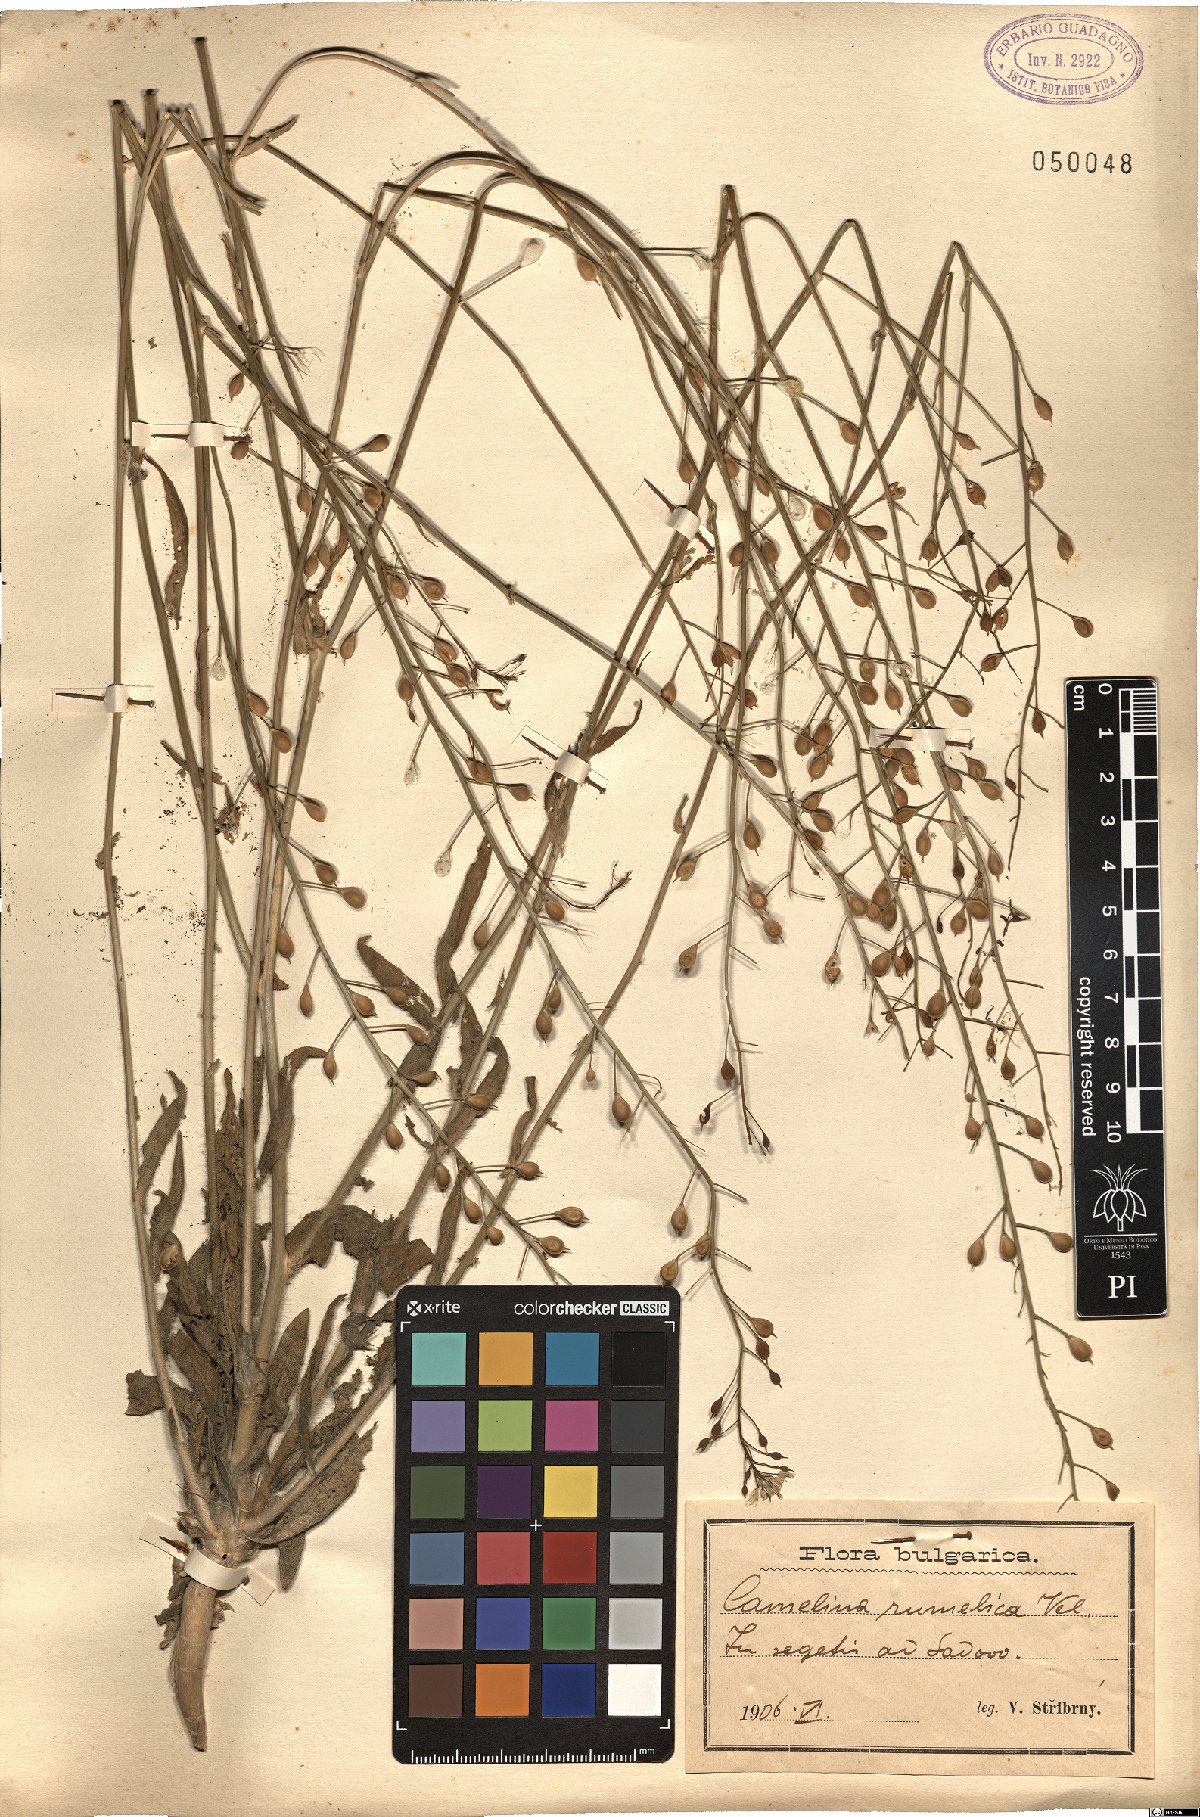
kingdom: Plantae
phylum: Tracheophyta
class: Magnoliopsida
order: Brassicales
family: Brassicaceae
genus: Camelina
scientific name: Camelina rumelica
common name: Graceful false flax
